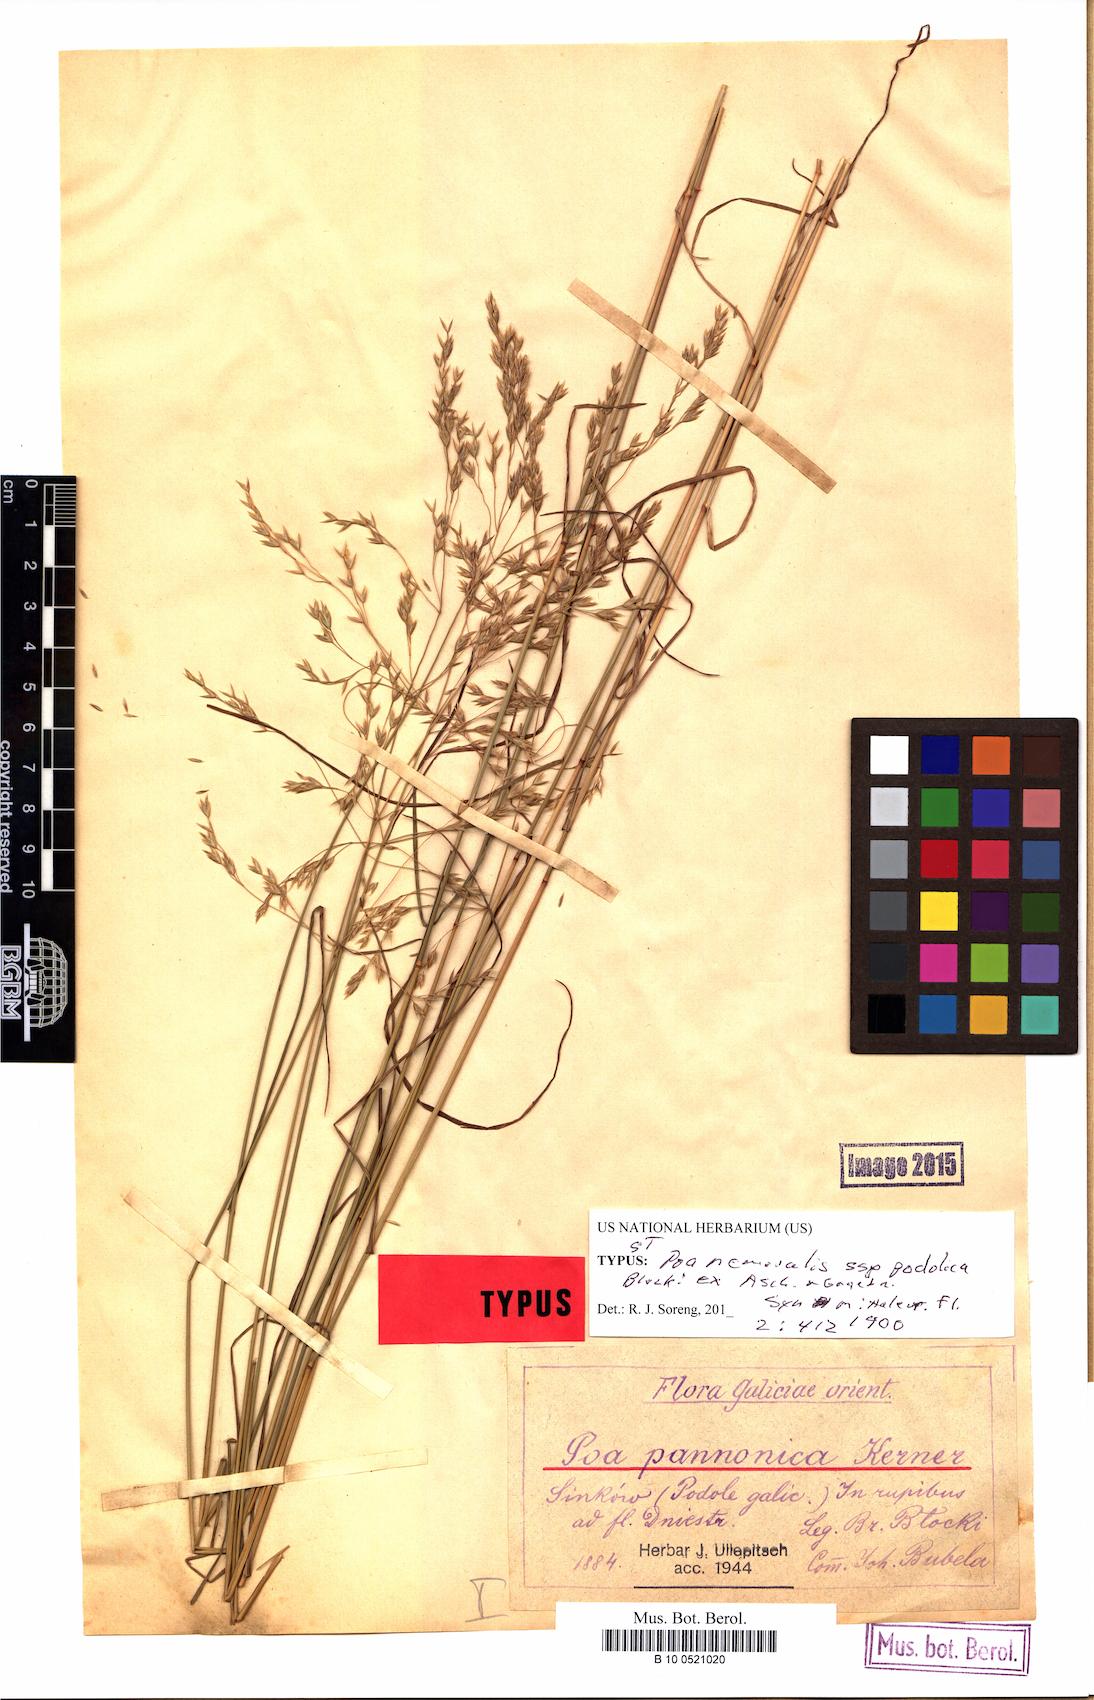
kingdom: Plantae
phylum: Tracheophyta
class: Liliopsida
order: Poales
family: Poaceae
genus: Poa
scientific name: Poa versicolor
